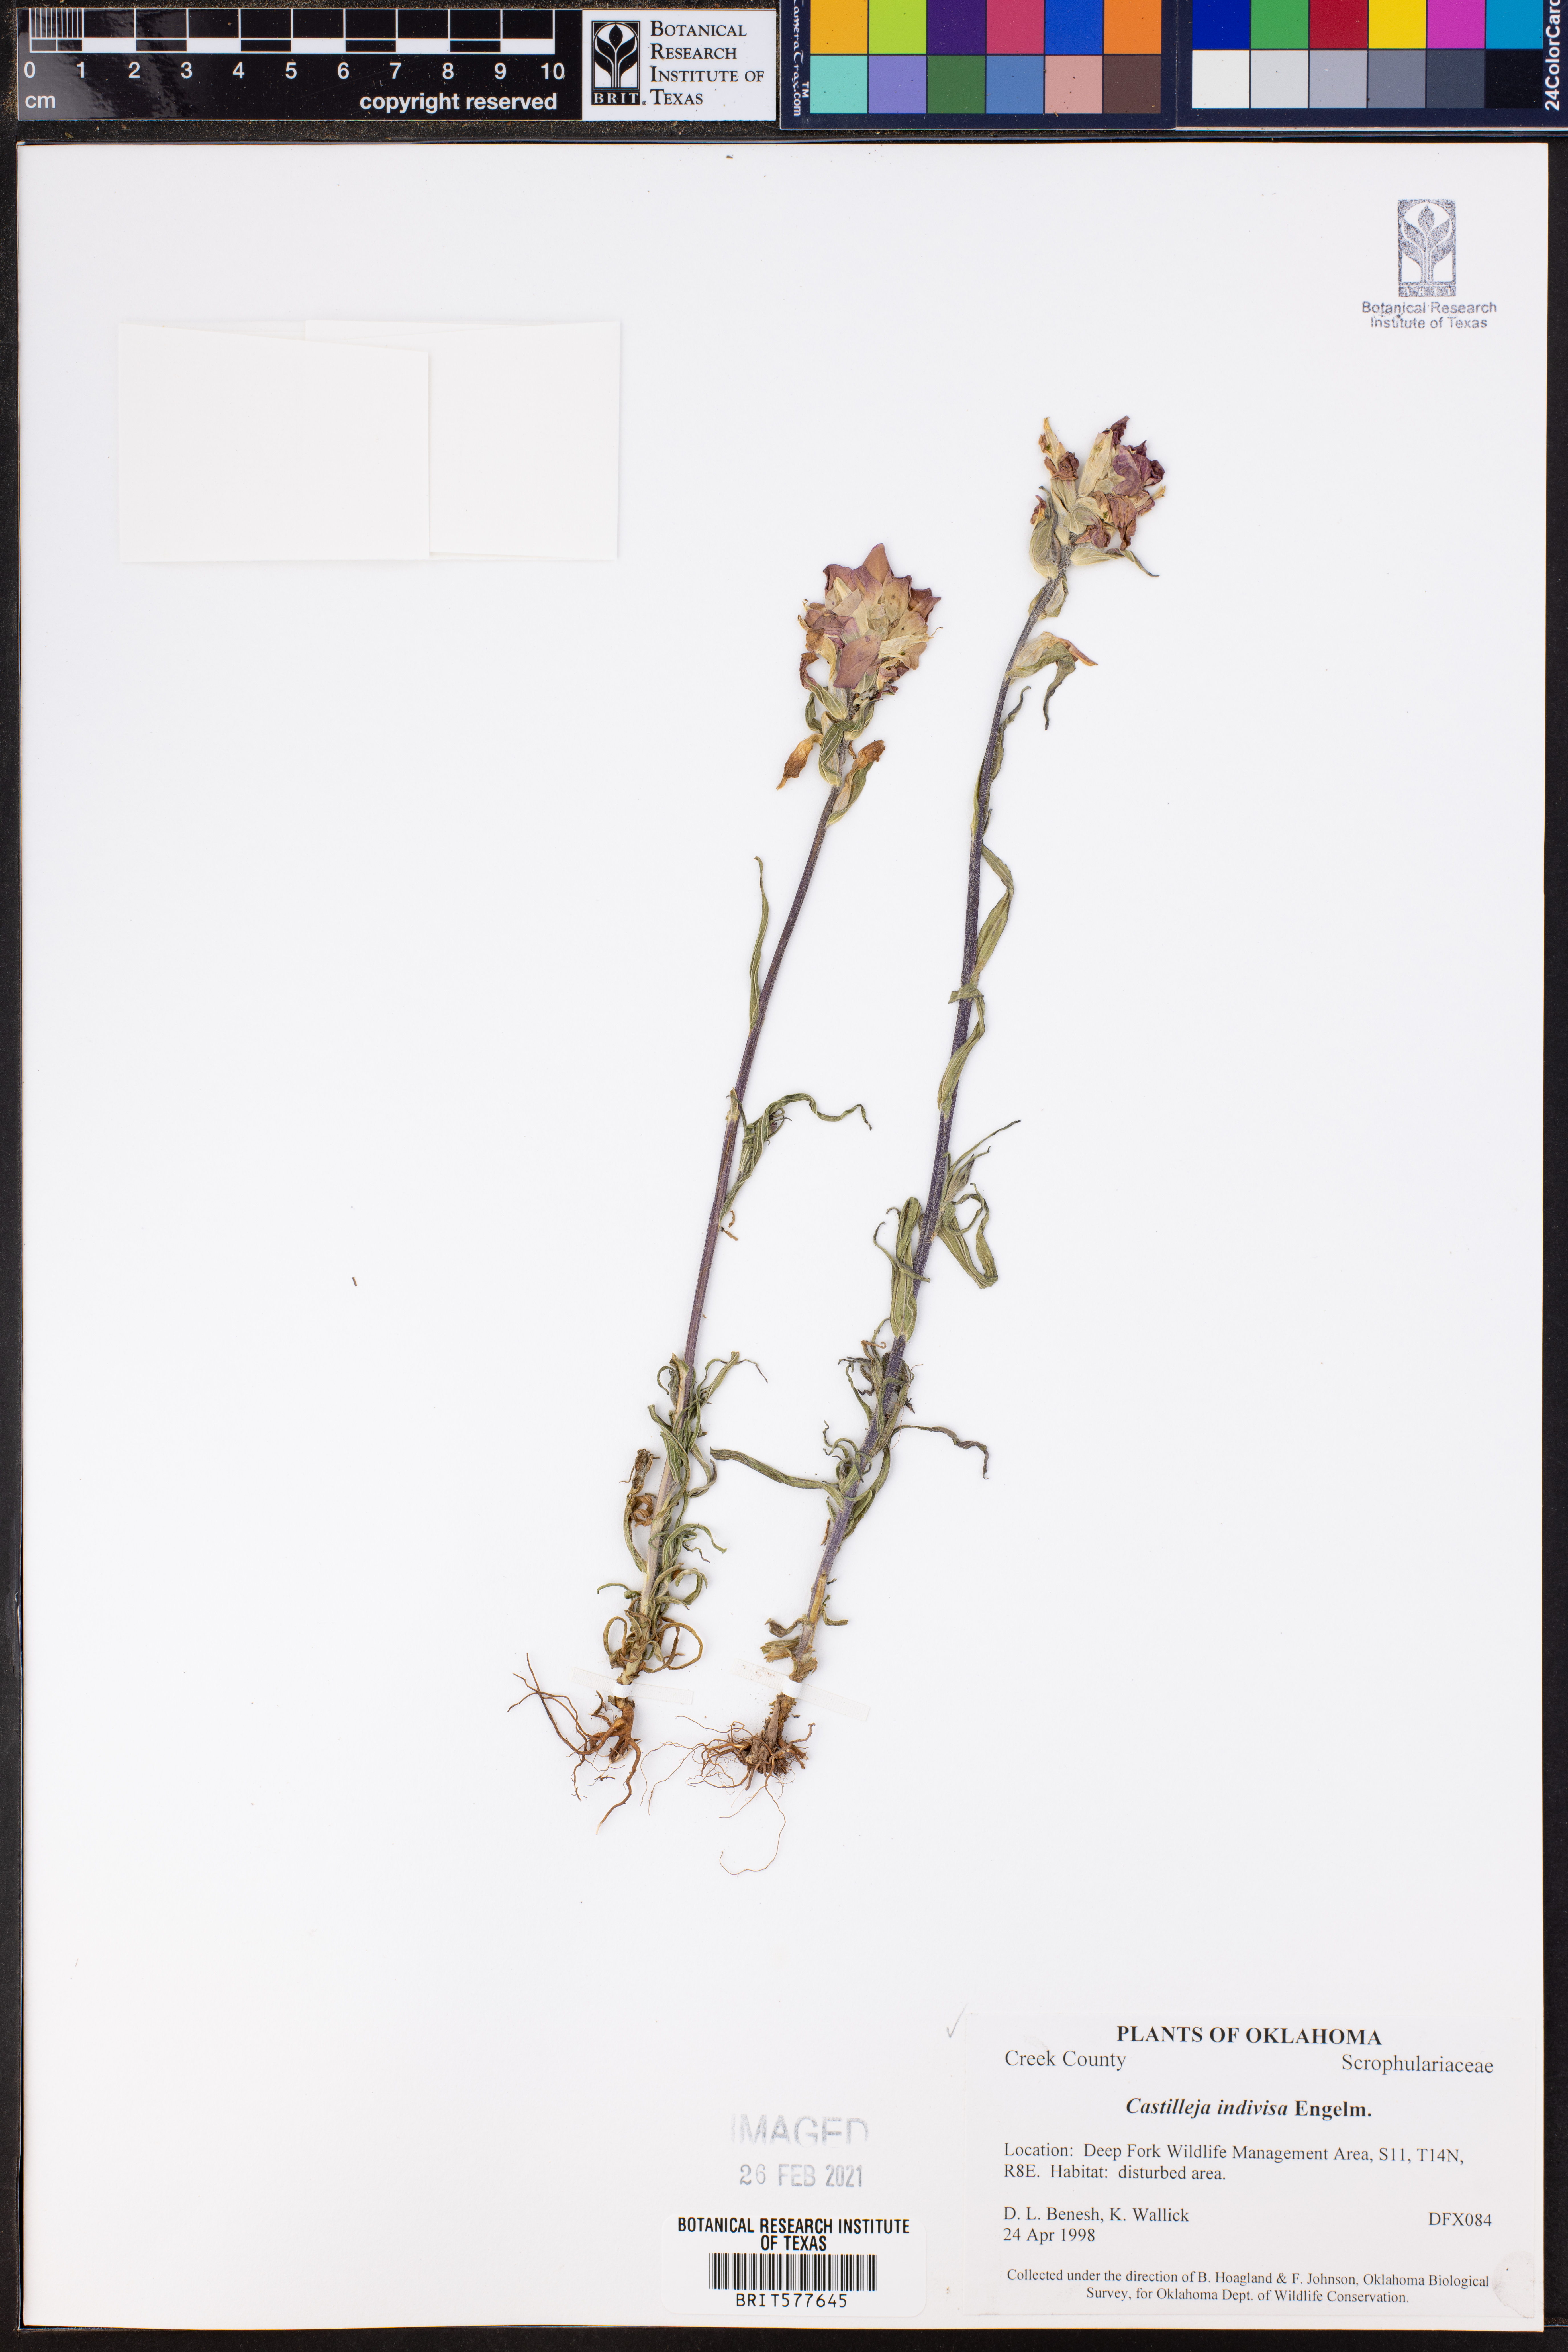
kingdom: Plantae
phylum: Tracheophyta
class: Magnoliopsida
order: Lamiales
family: Orobanchaceae
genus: Castilleja
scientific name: Castilleja indivisa
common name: Texas paintbrush
